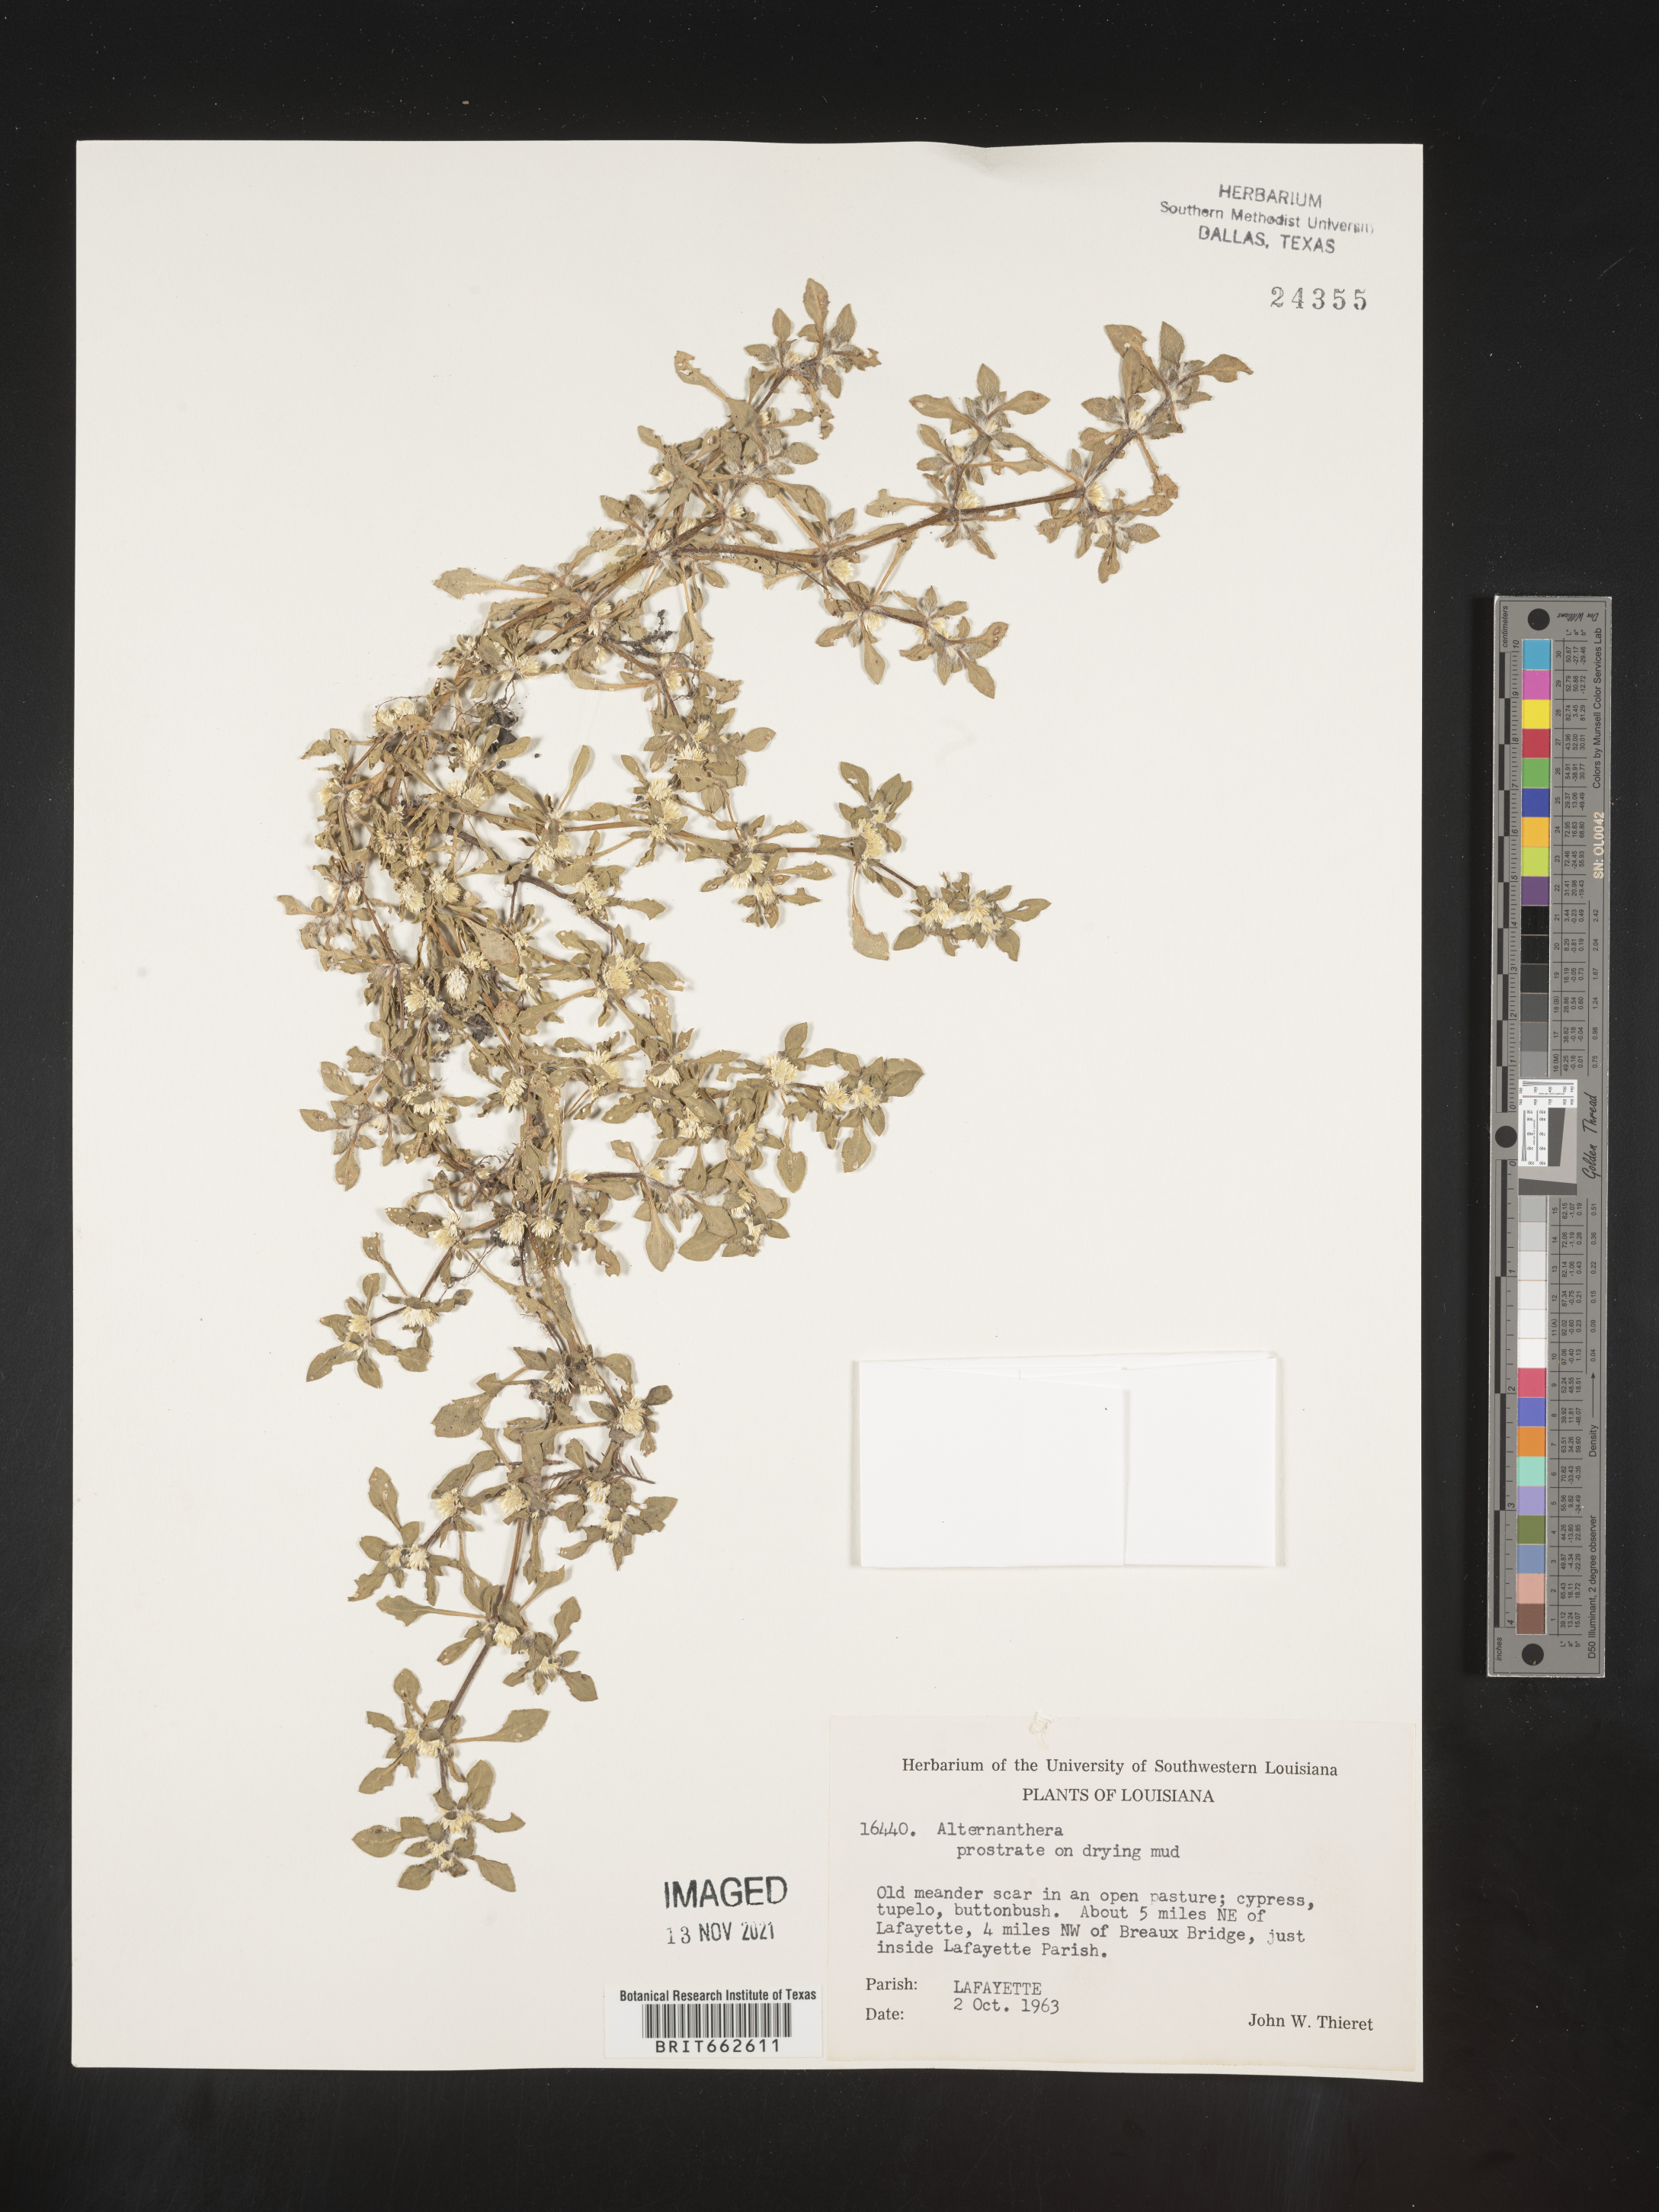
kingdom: Plantae
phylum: Tracheophyta
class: Magnoliopsida
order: Caryophyllales
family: Amaranthaceae
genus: Alternanthera
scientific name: Alternanthera
